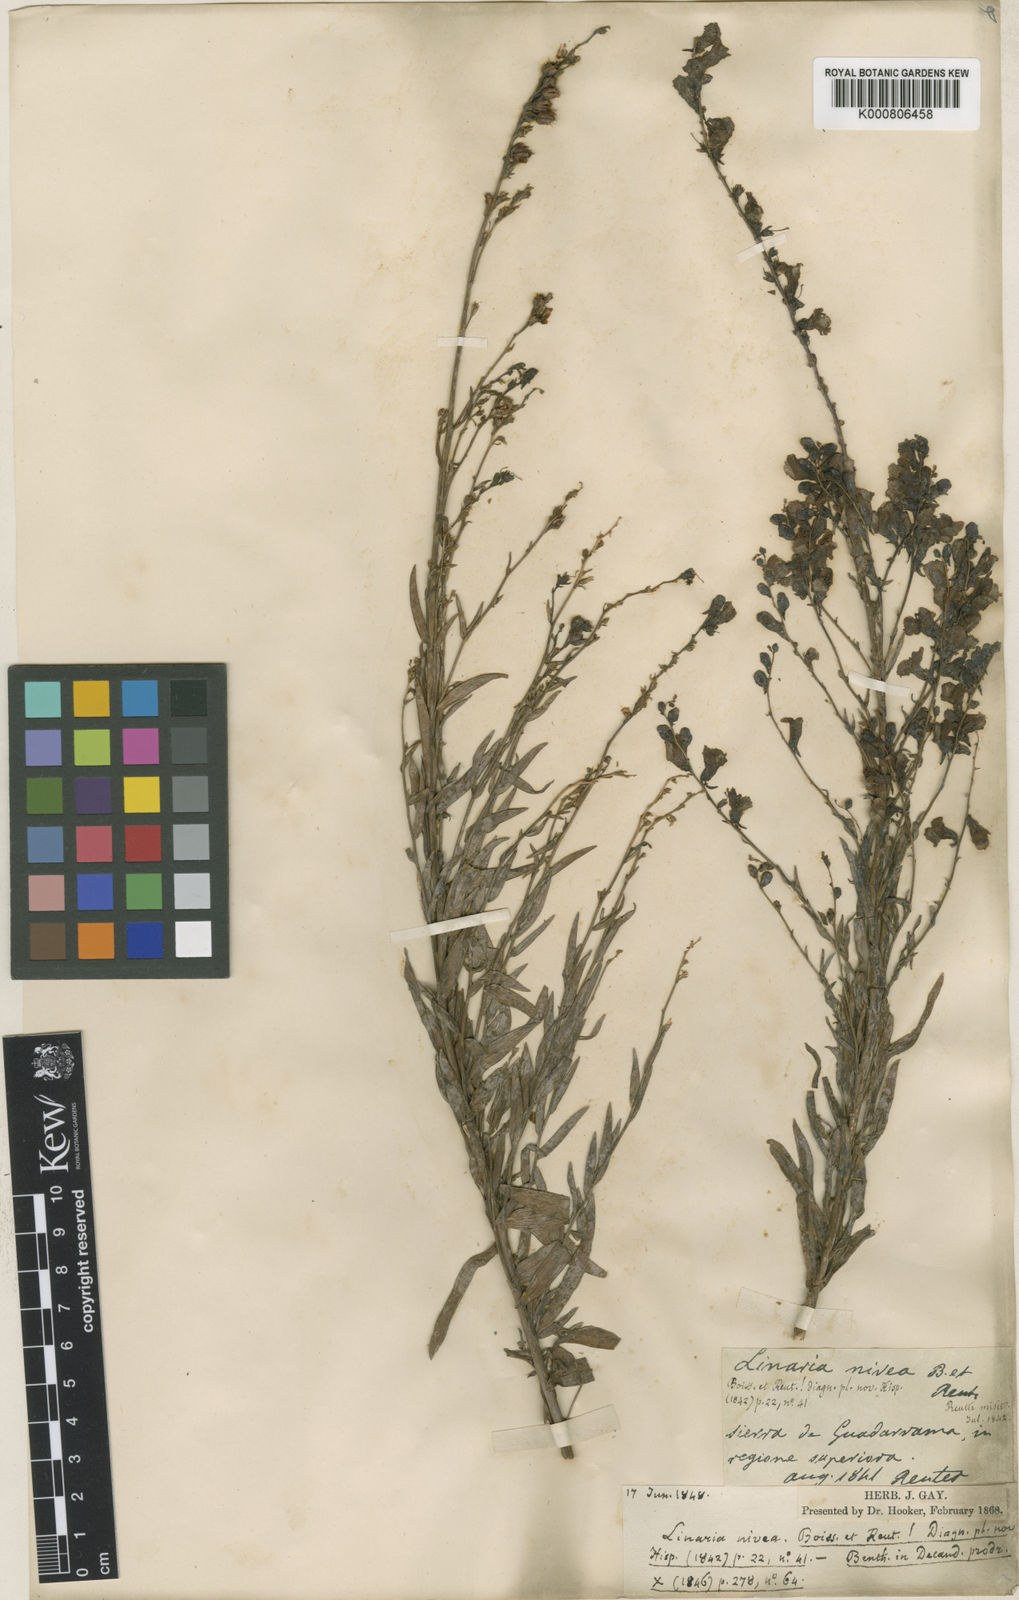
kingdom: Plantae
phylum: Tracheophyta
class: Magnoliopsida
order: Lamiales
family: Plantaginaceae
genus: Linaria
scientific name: Linaria nivea
